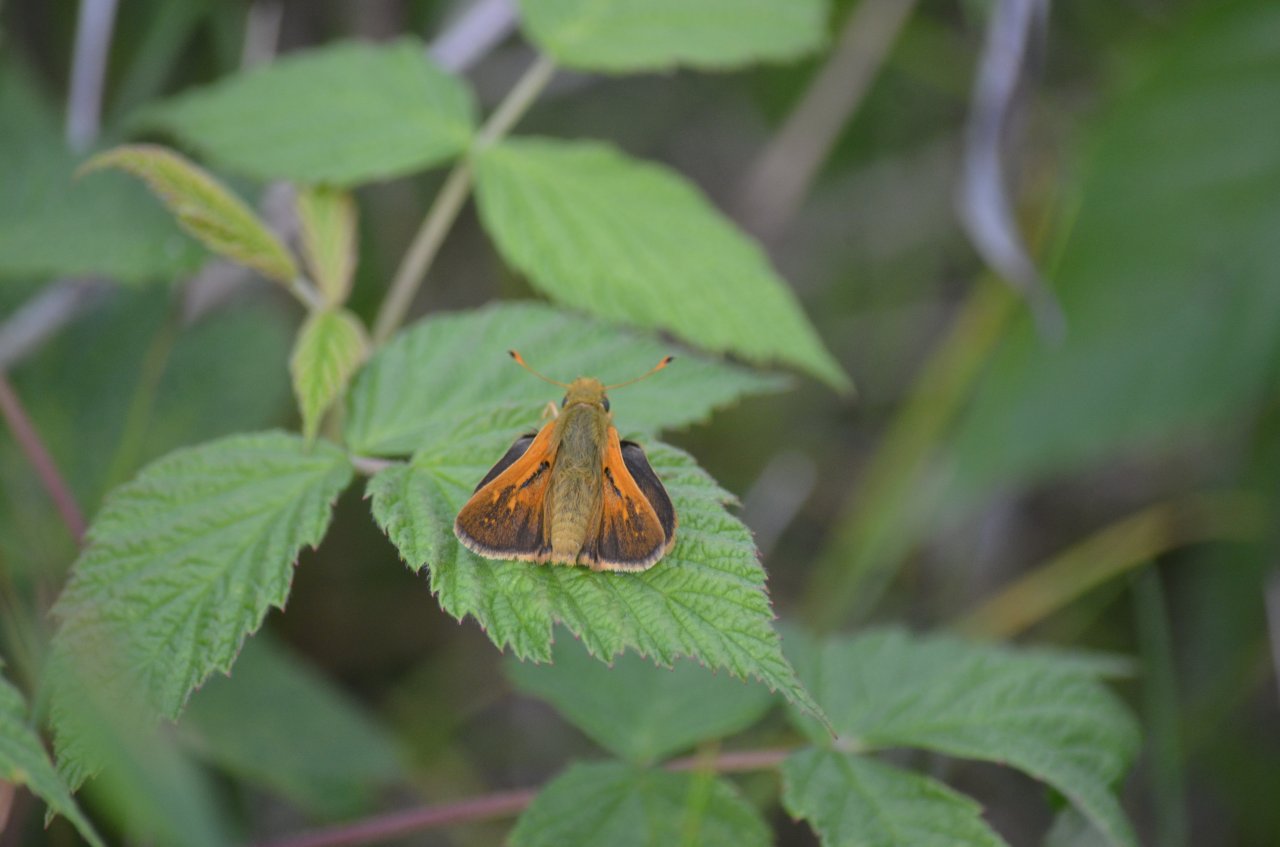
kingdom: Animalia
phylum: Arthropoda
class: Insecta
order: Lepidoptera
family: Hesperiidae
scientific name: Hesperiidae
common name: Skippers
